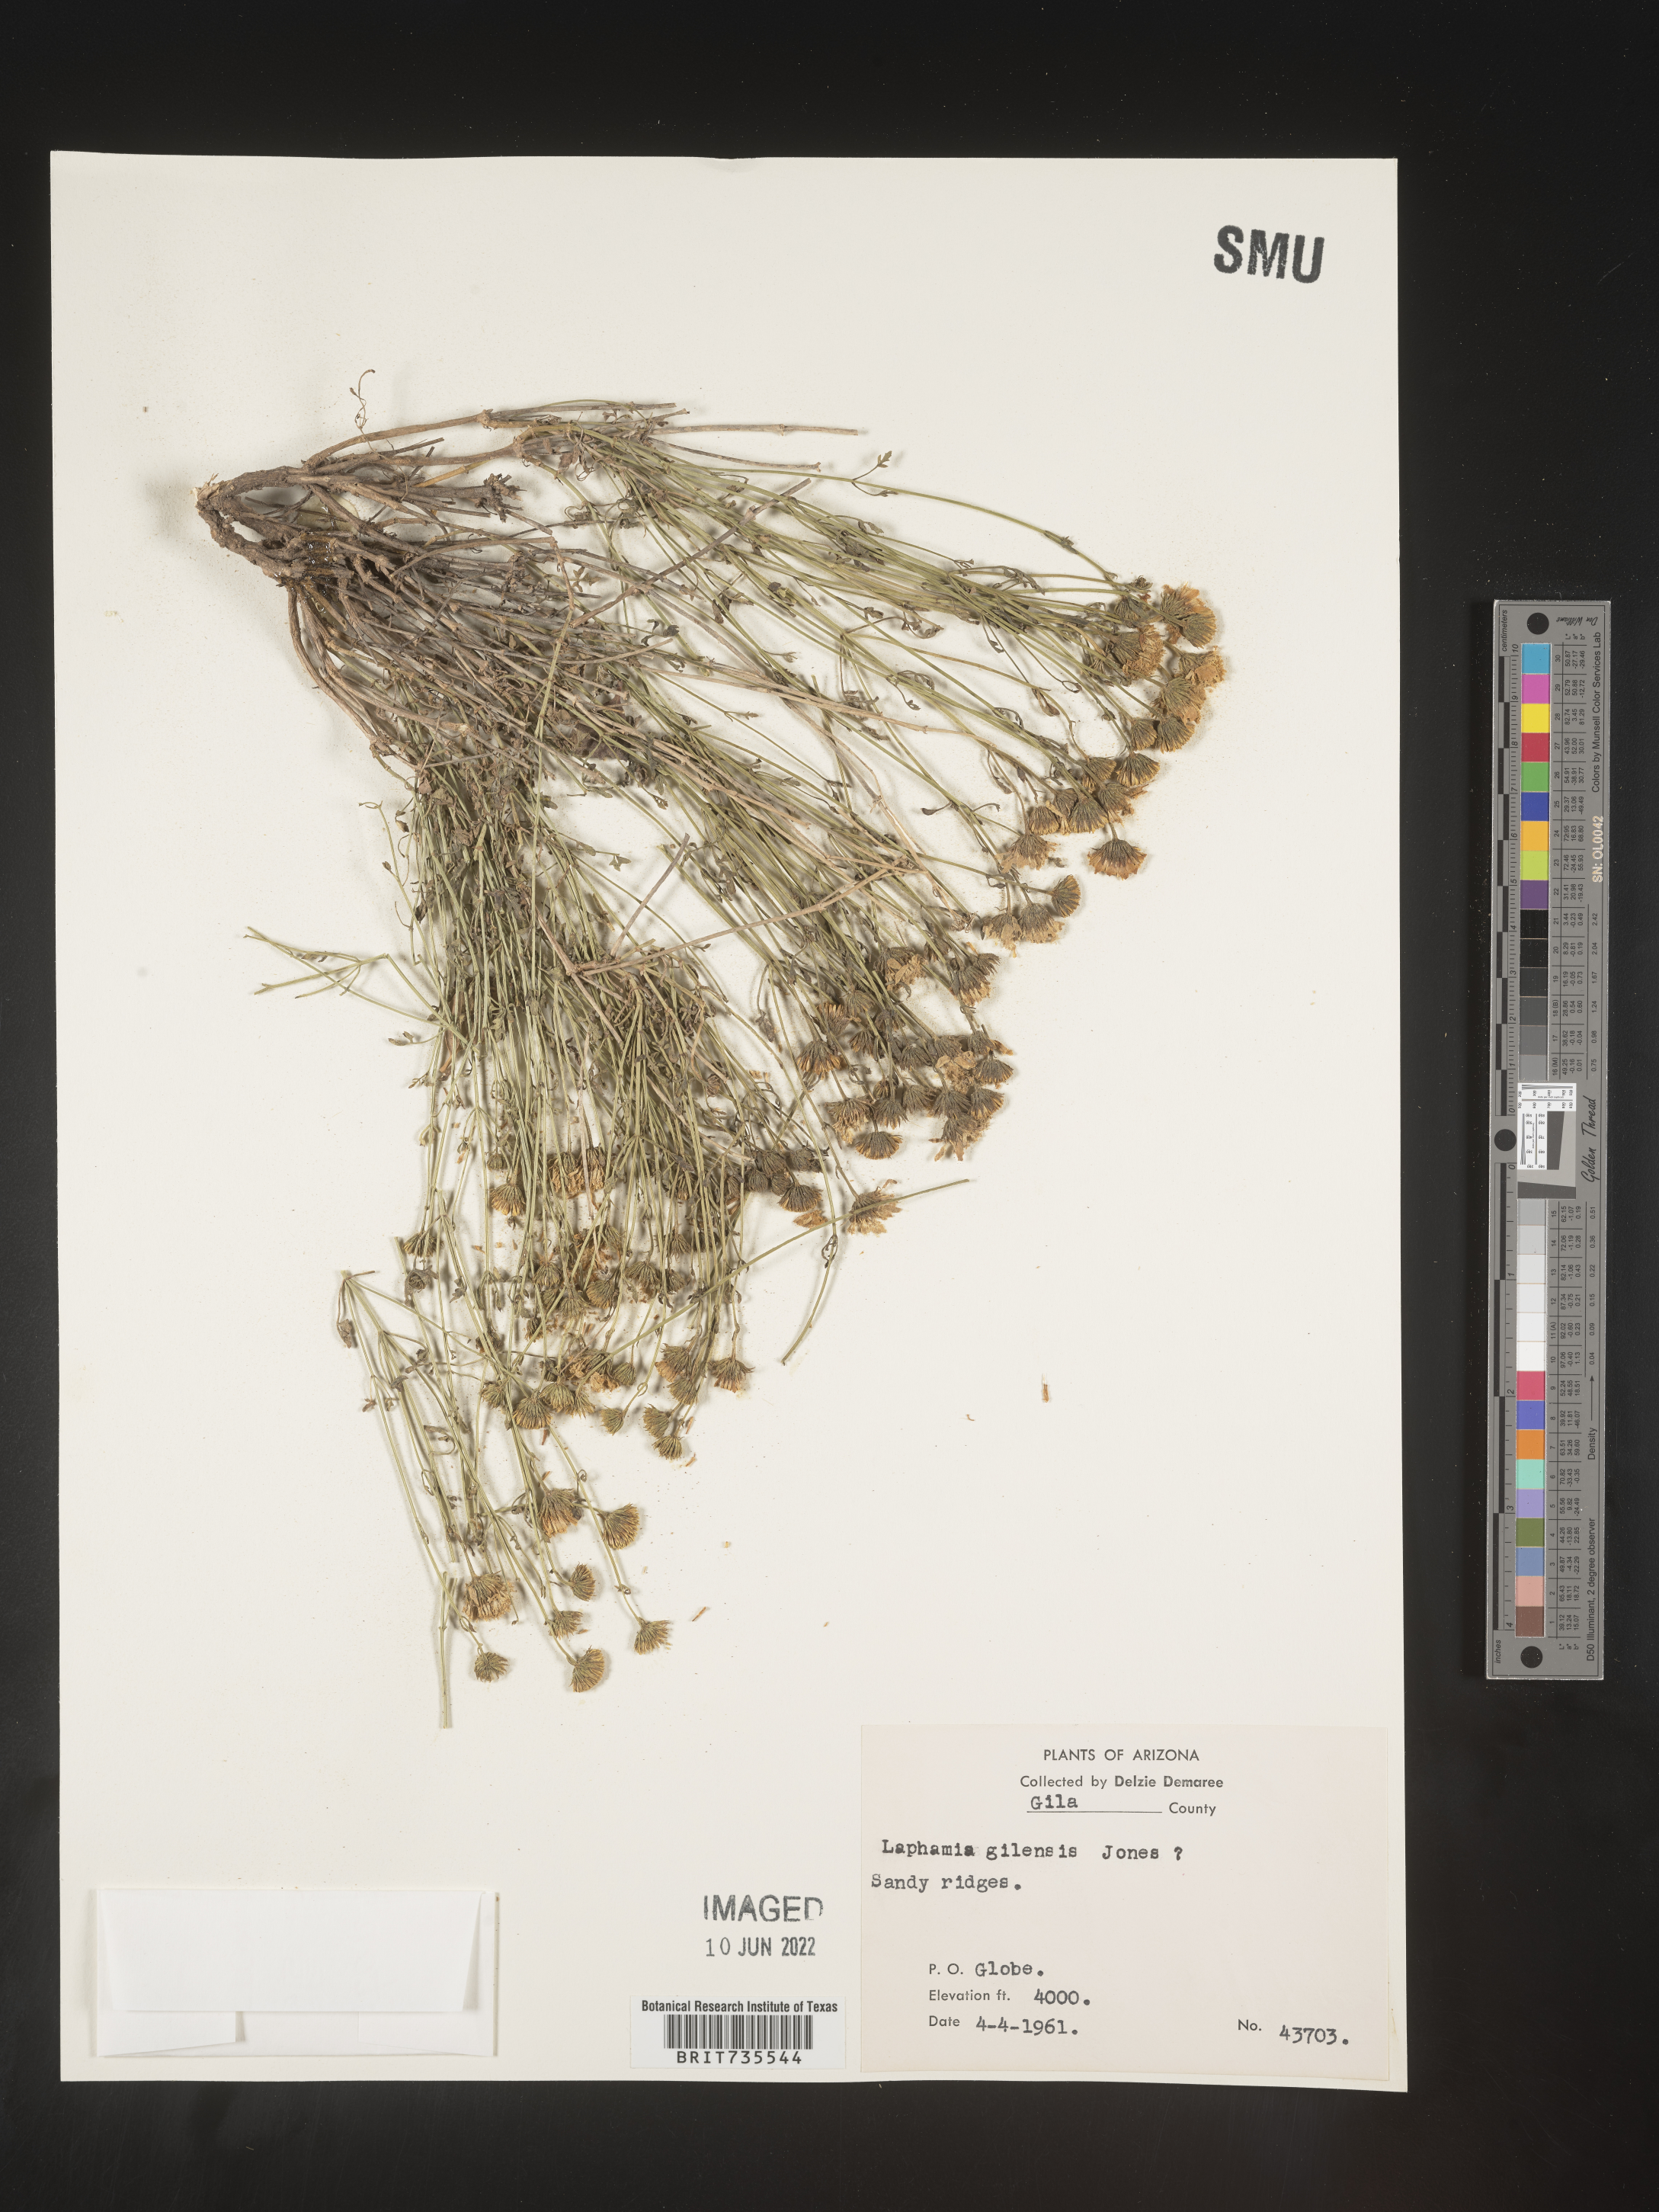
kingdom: Plantae
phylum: Tracheophyta
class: Magnoliopsida
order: Asterales
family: Asteraceae
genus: Perityle
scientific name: Perityle
